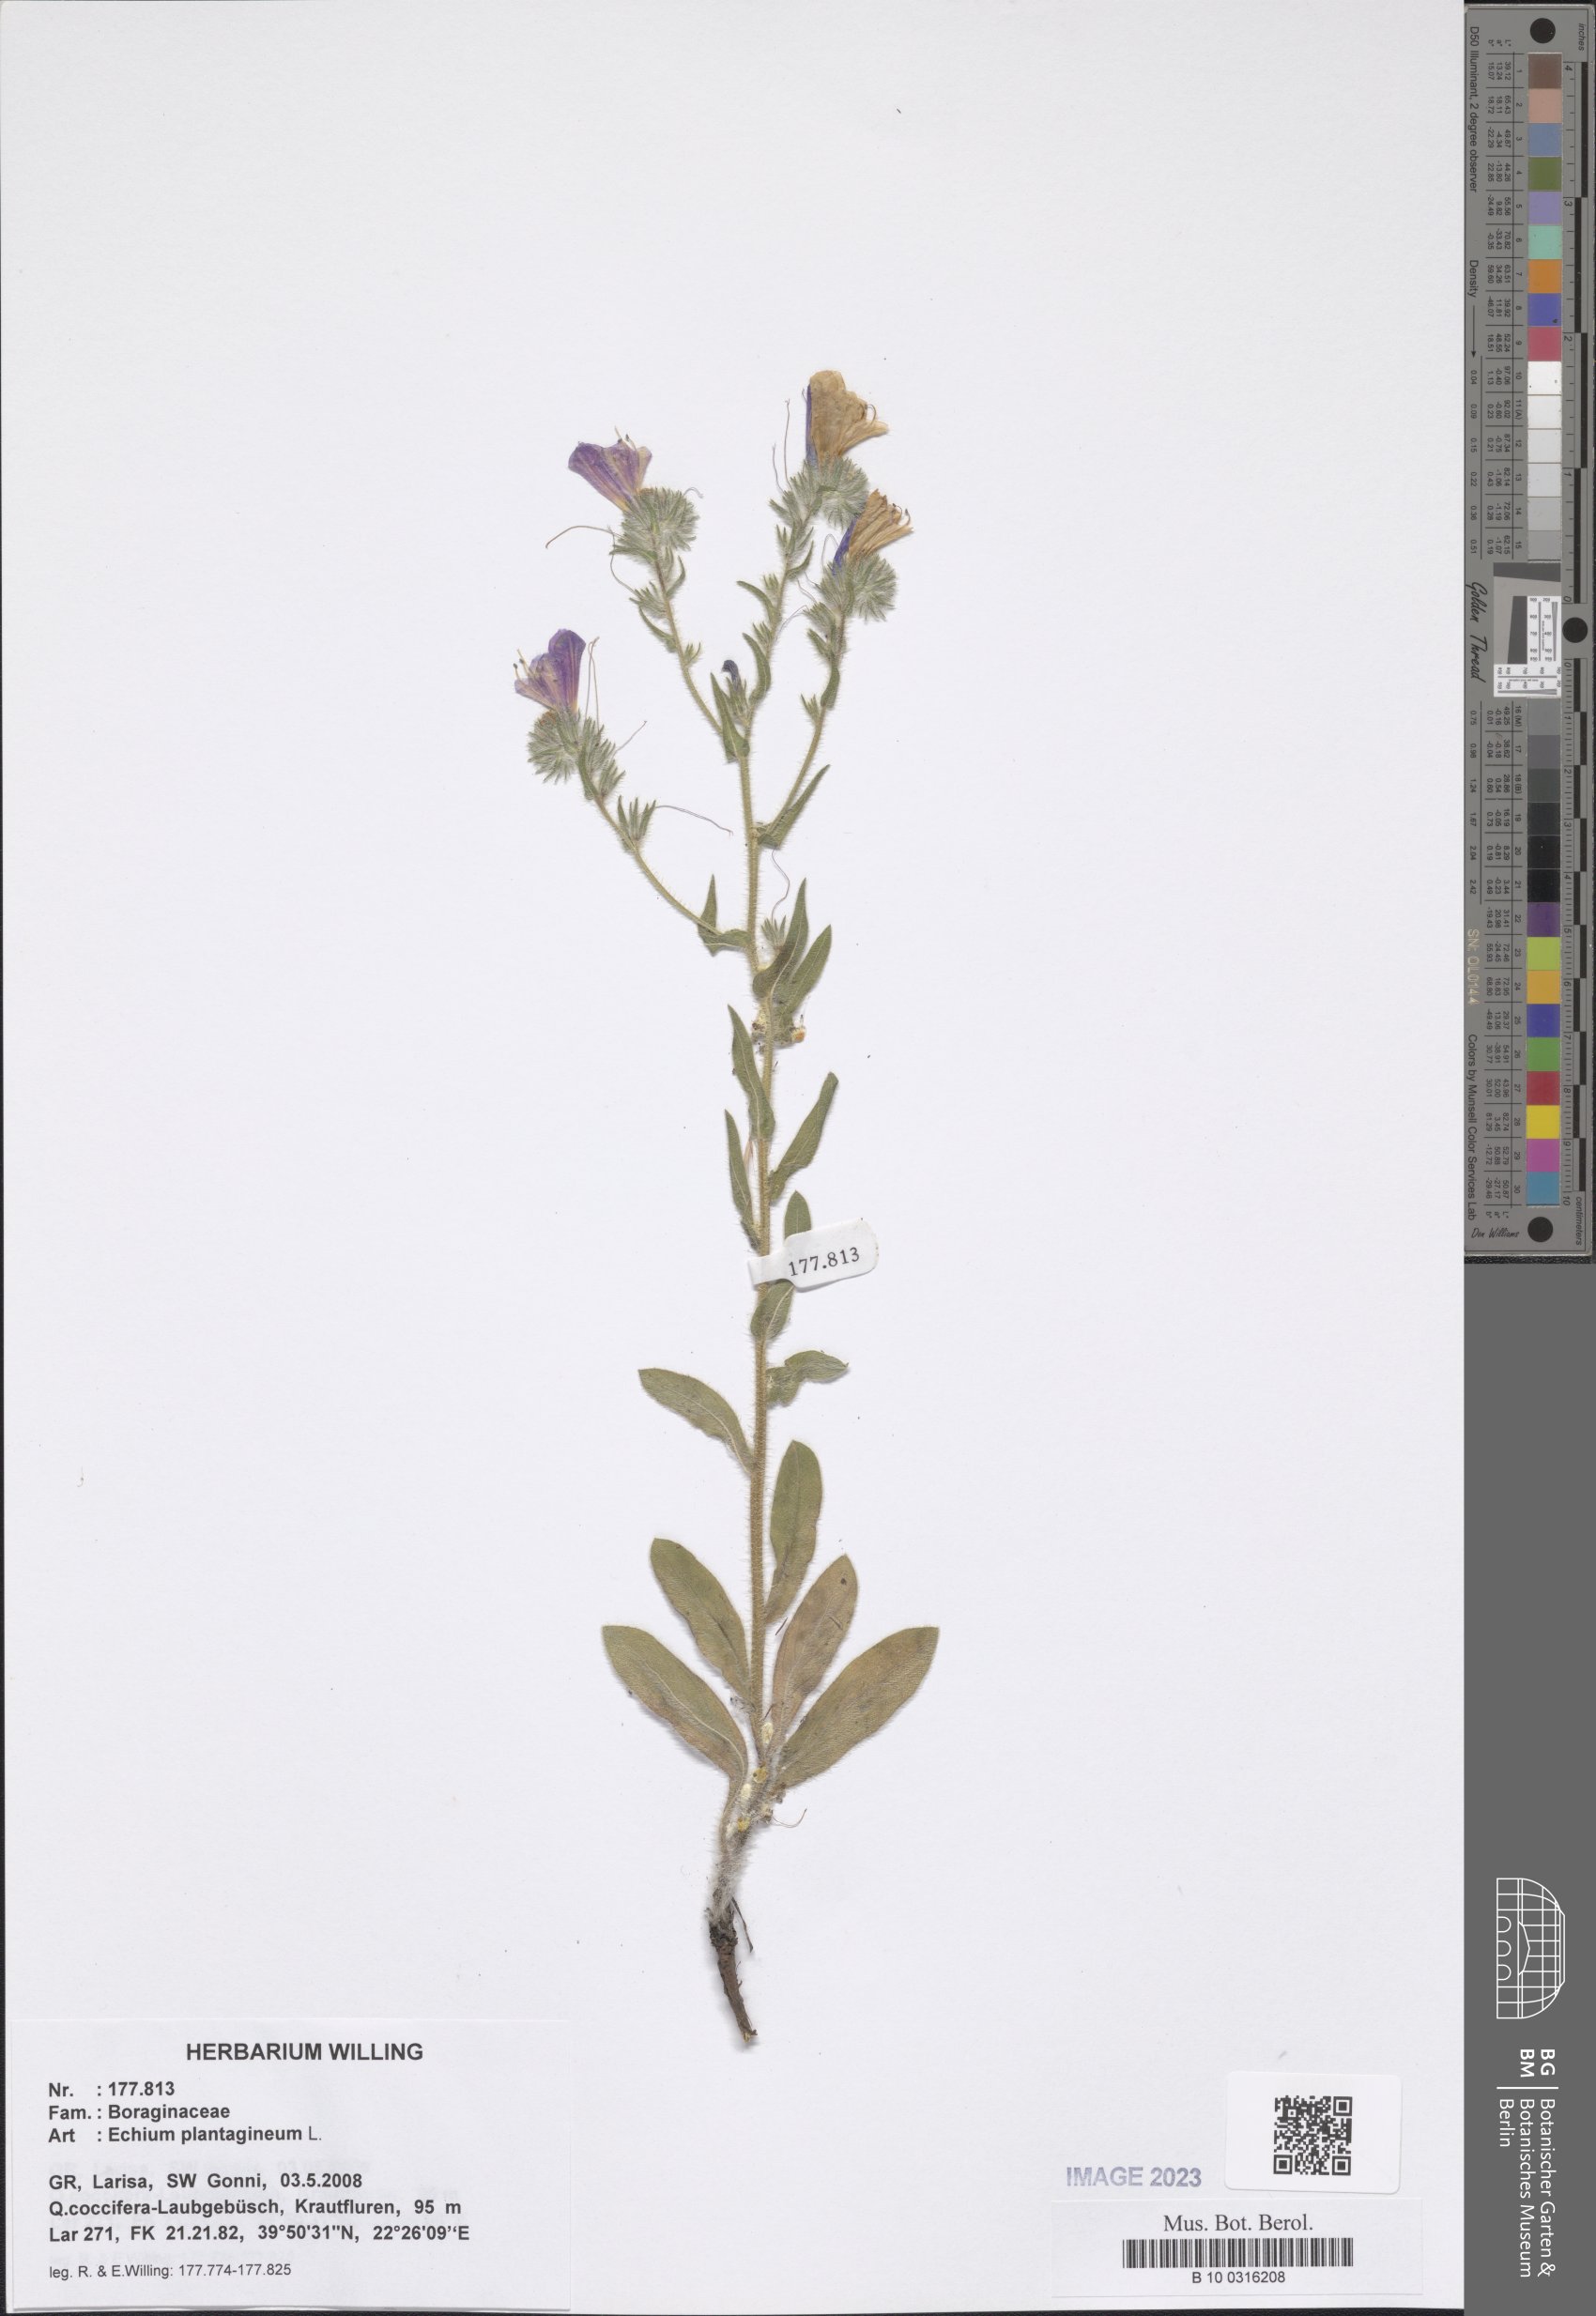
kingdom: Plantae
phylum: Tracheophyta
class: Magnoliopsida
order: Boraginales
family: Boraginaceae
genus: Echium
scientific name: Echium plantagineum
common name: Purple viper's-bugloss
